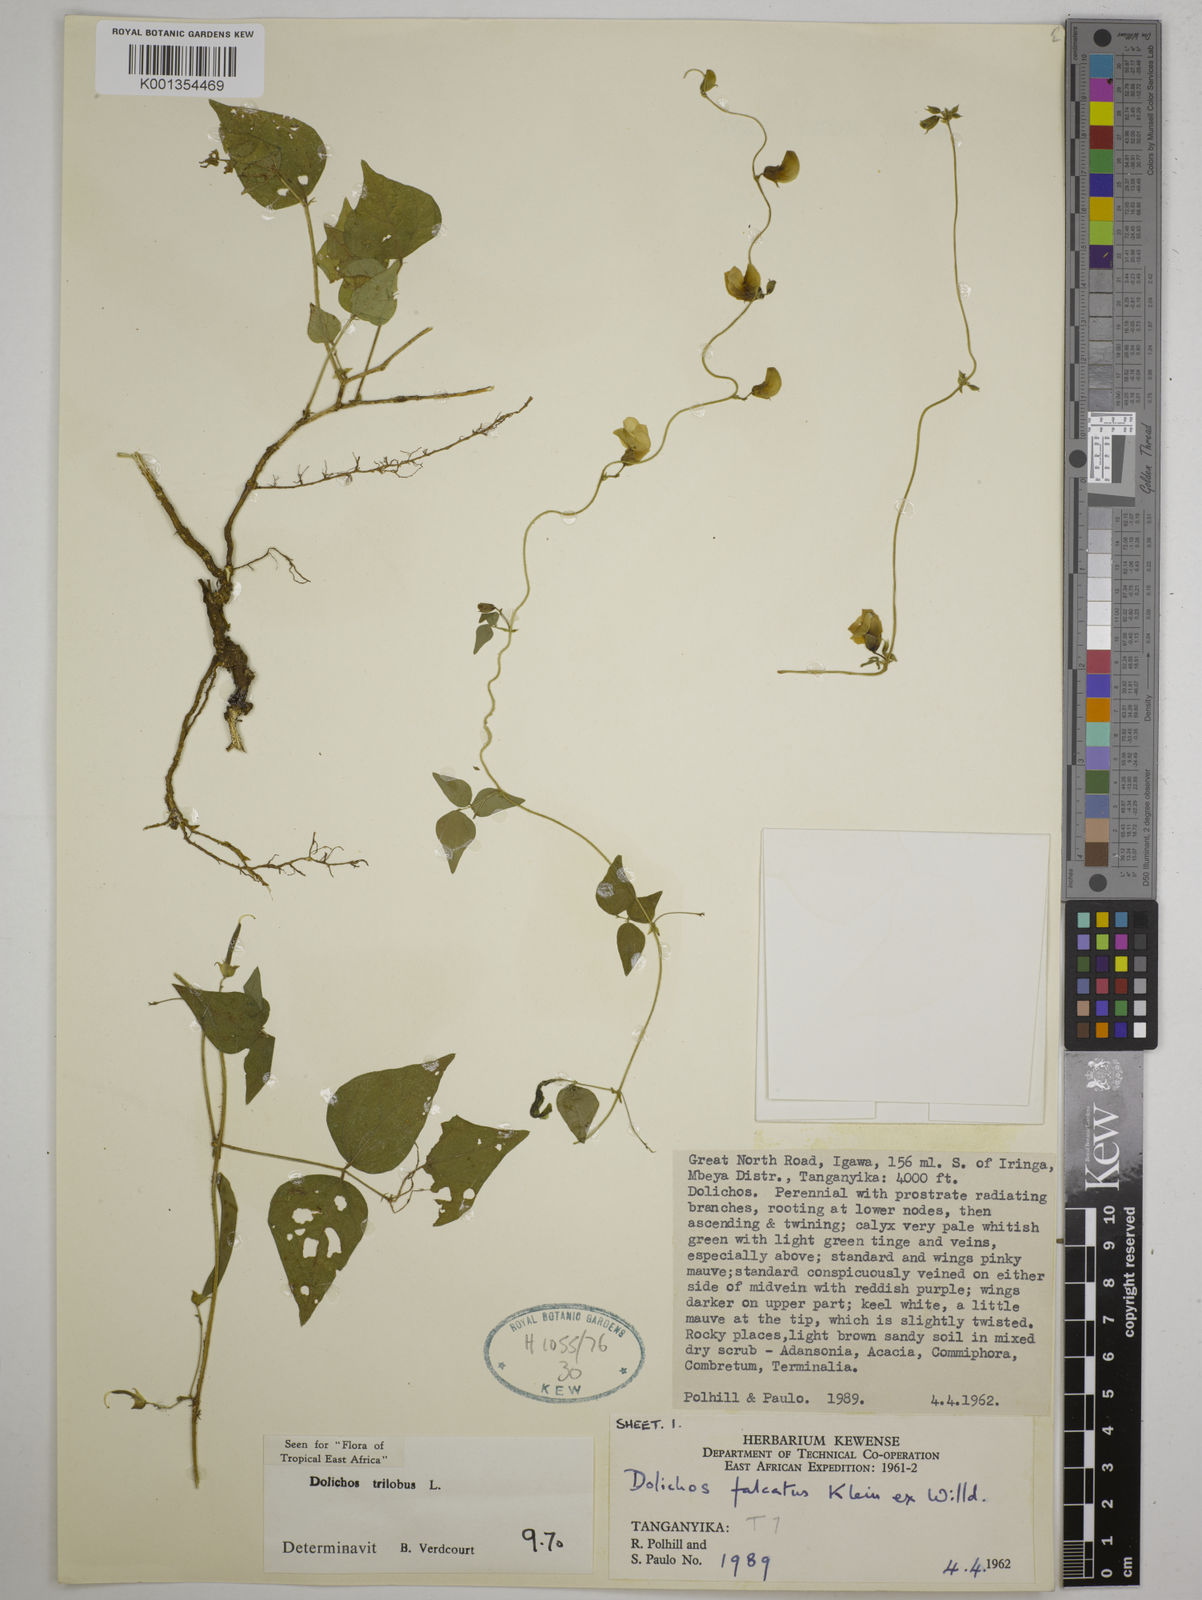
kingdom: Plantae
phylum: Tracheophyta
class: Magnoliopsida
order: Fabales
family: Fabaceae
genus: Dolichos
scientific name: Dolichos
